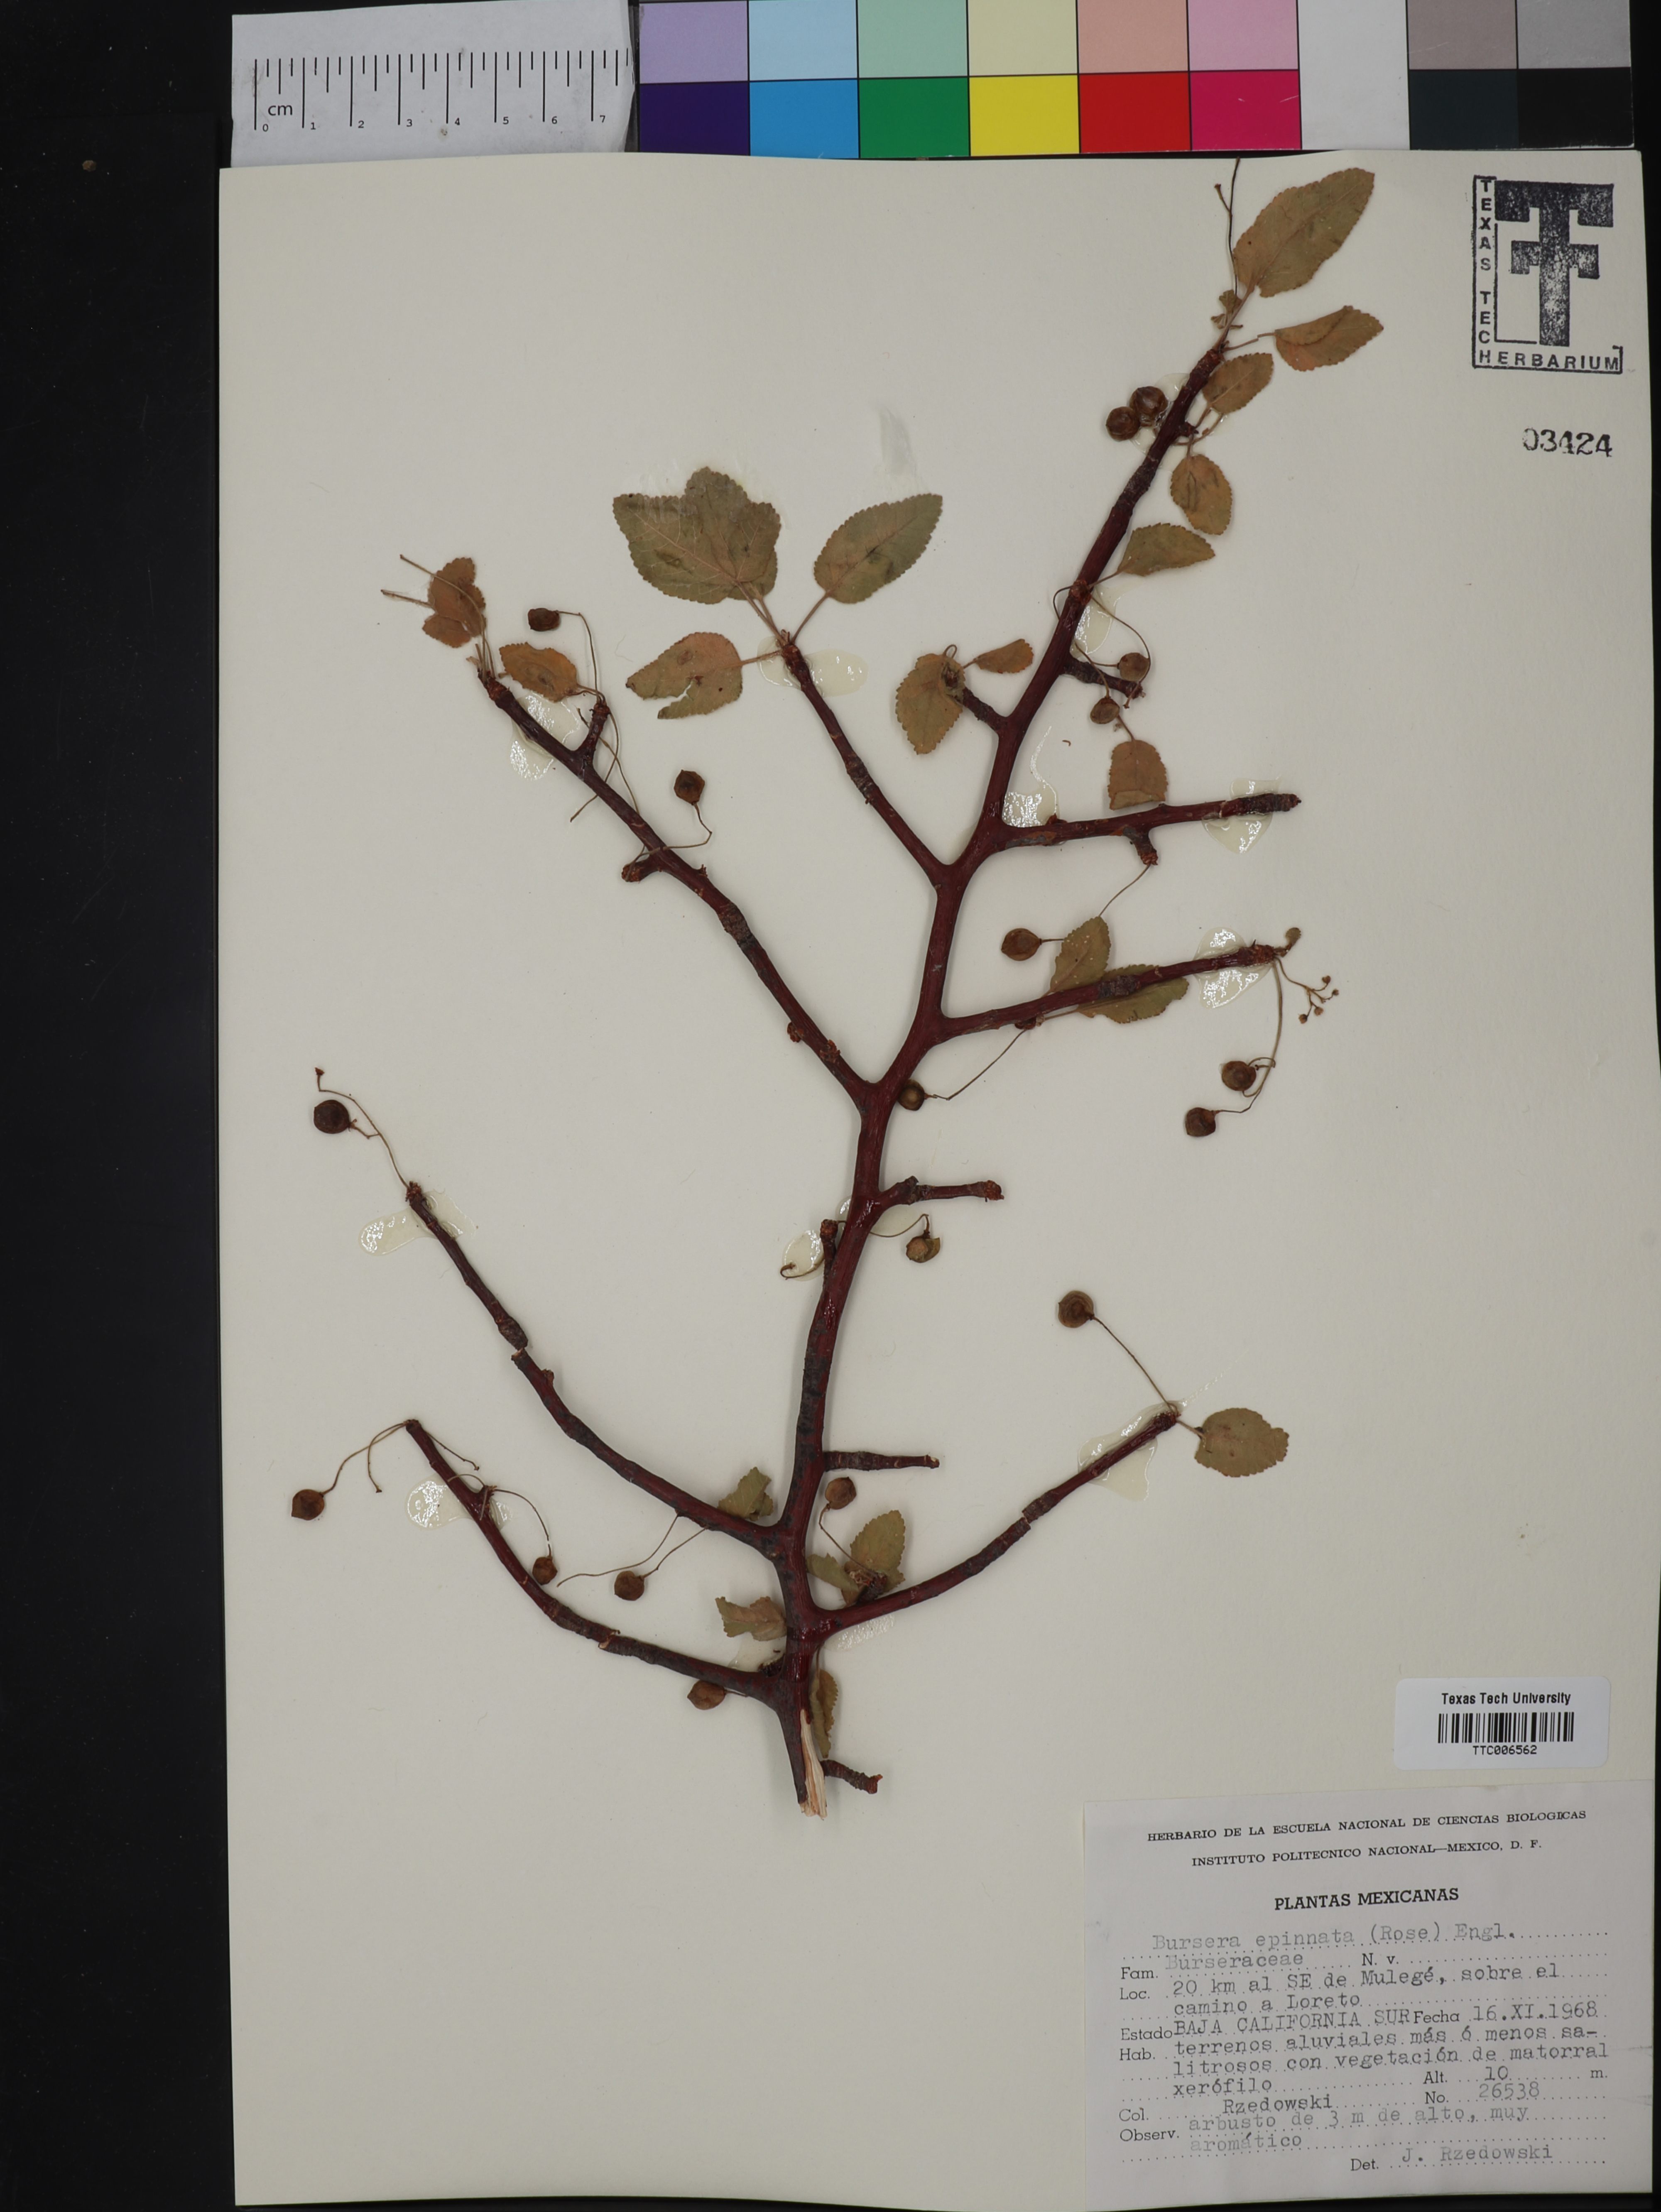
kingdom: Plantae
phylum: Tracheophyta
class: Magnoliopsida
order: Sapindales
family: Burseraceae
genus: Bursera
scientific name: Bursera epinnata
